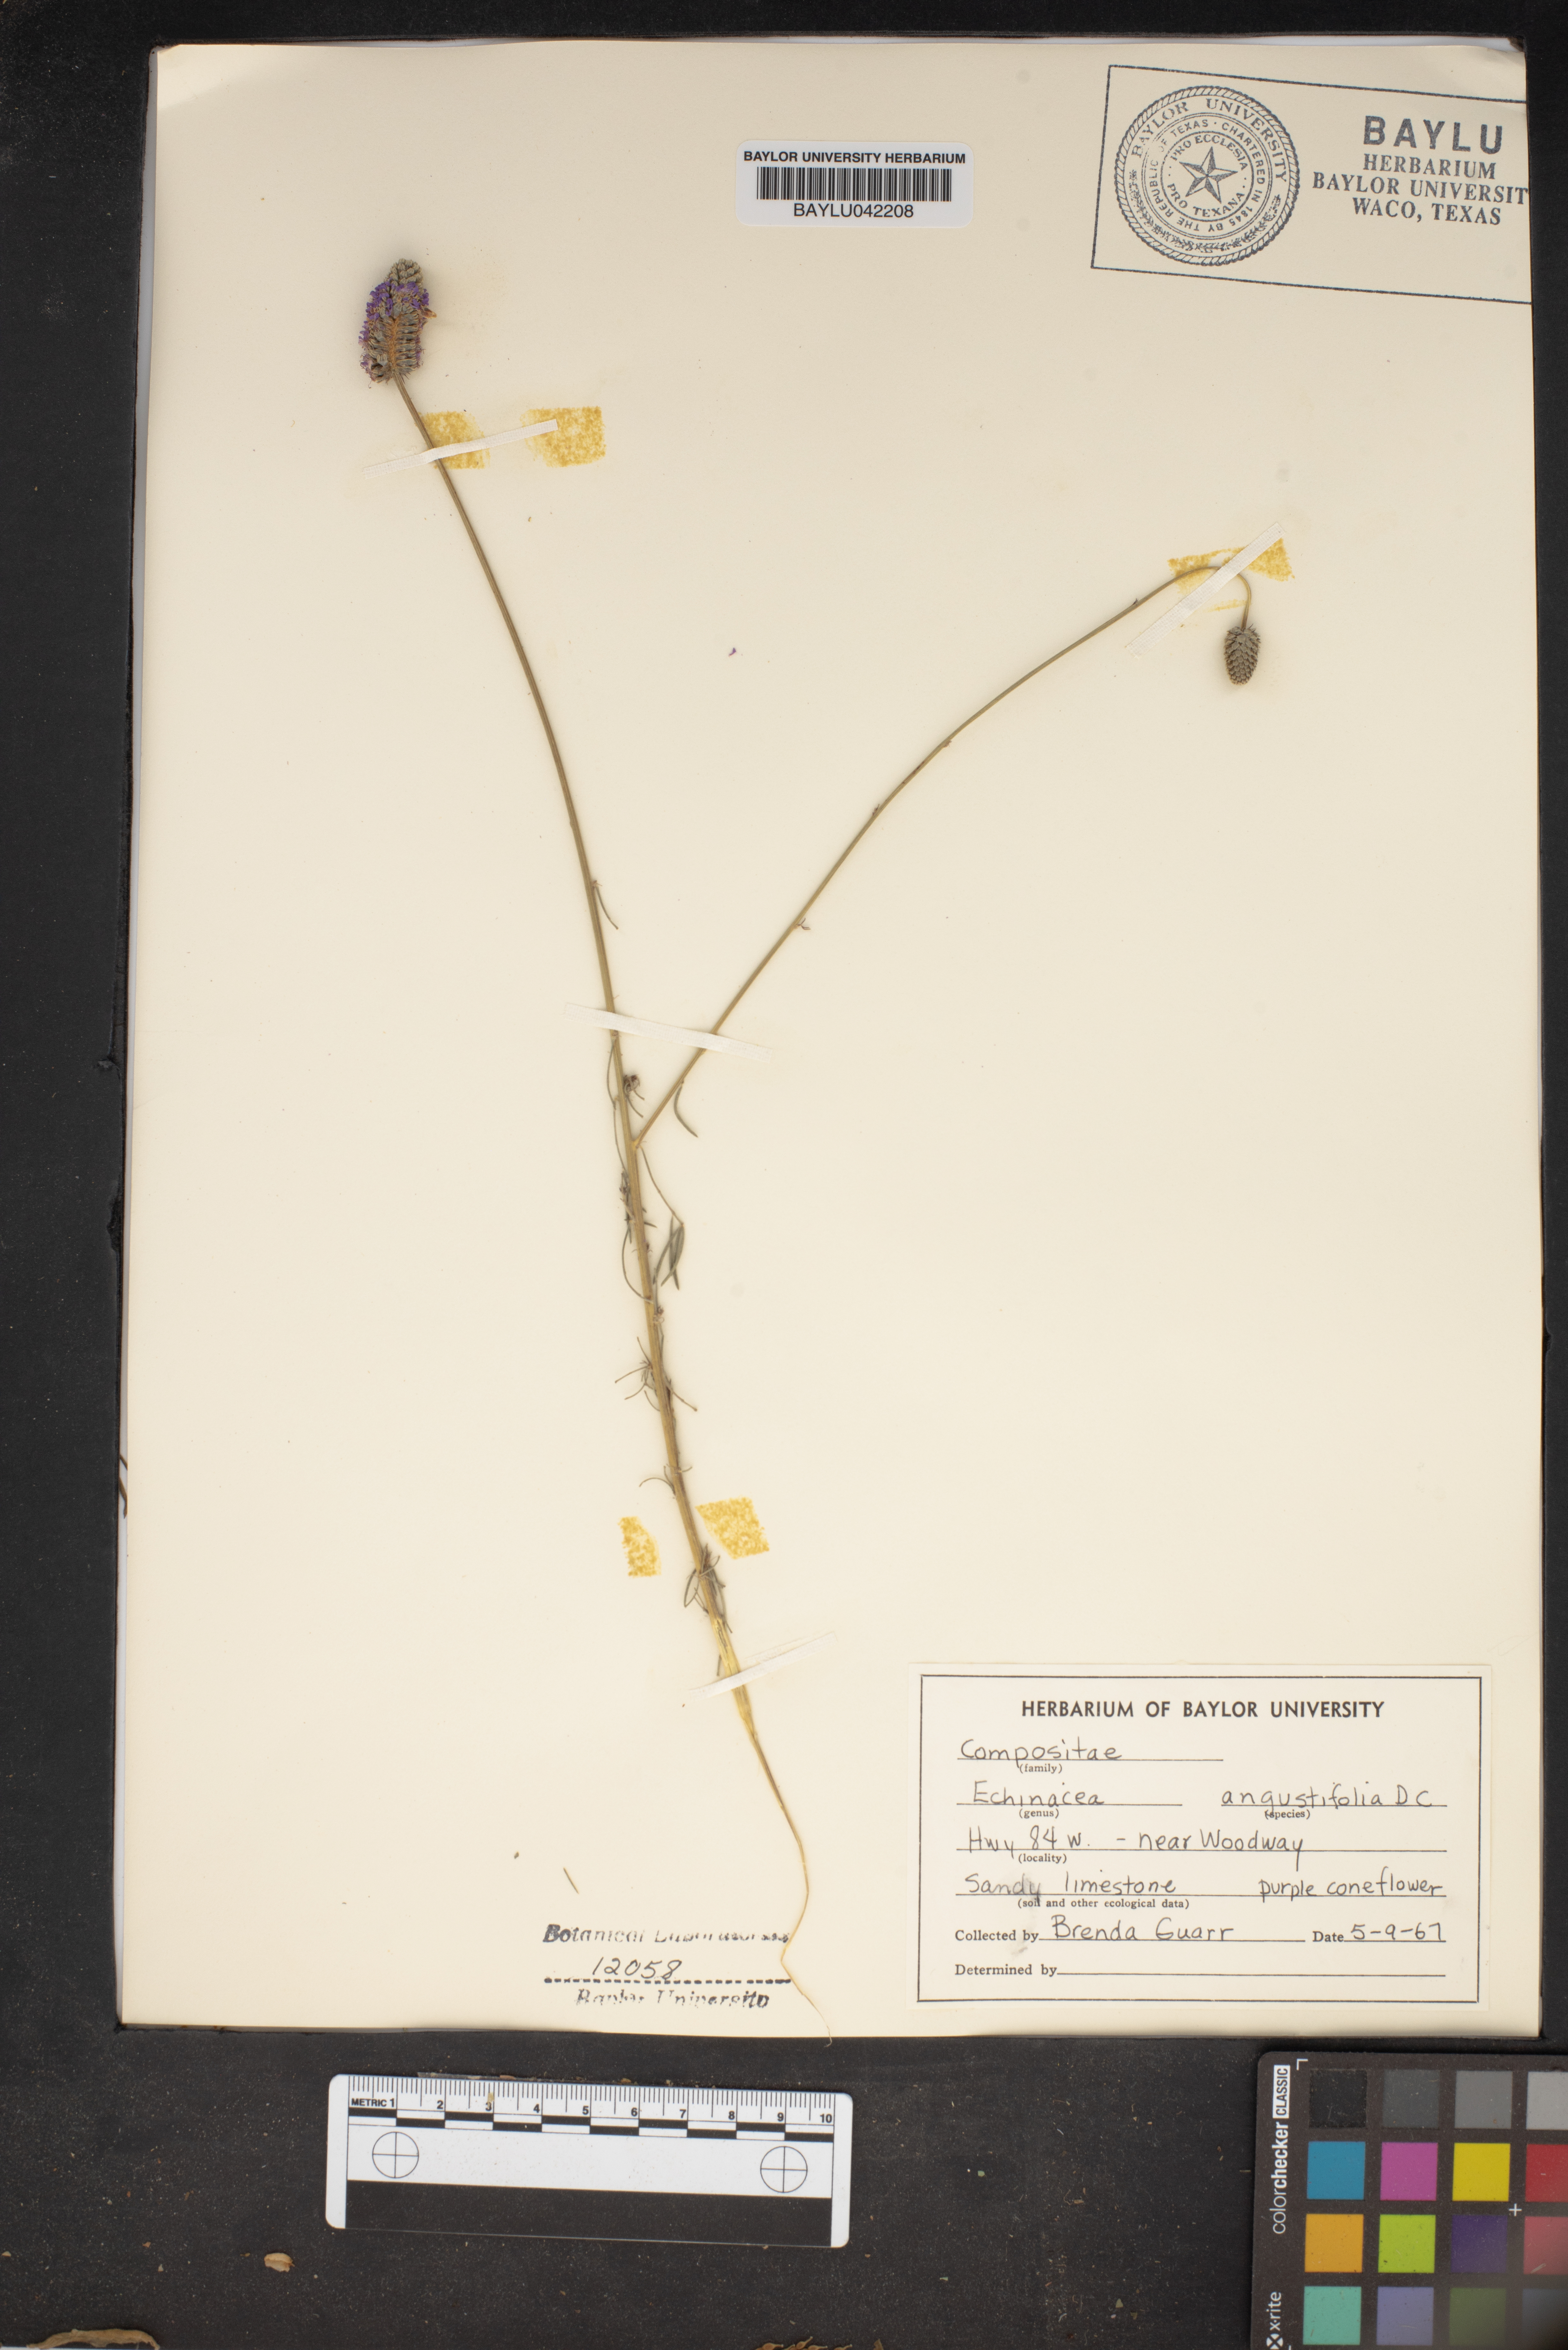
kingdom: Plantae
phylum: Tracheophyta
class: Magnoliopsida
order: Asterales
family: Asteraceae
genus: Echinacea
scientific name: Echinacea angustifolia
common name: Black-sampson echinacea
